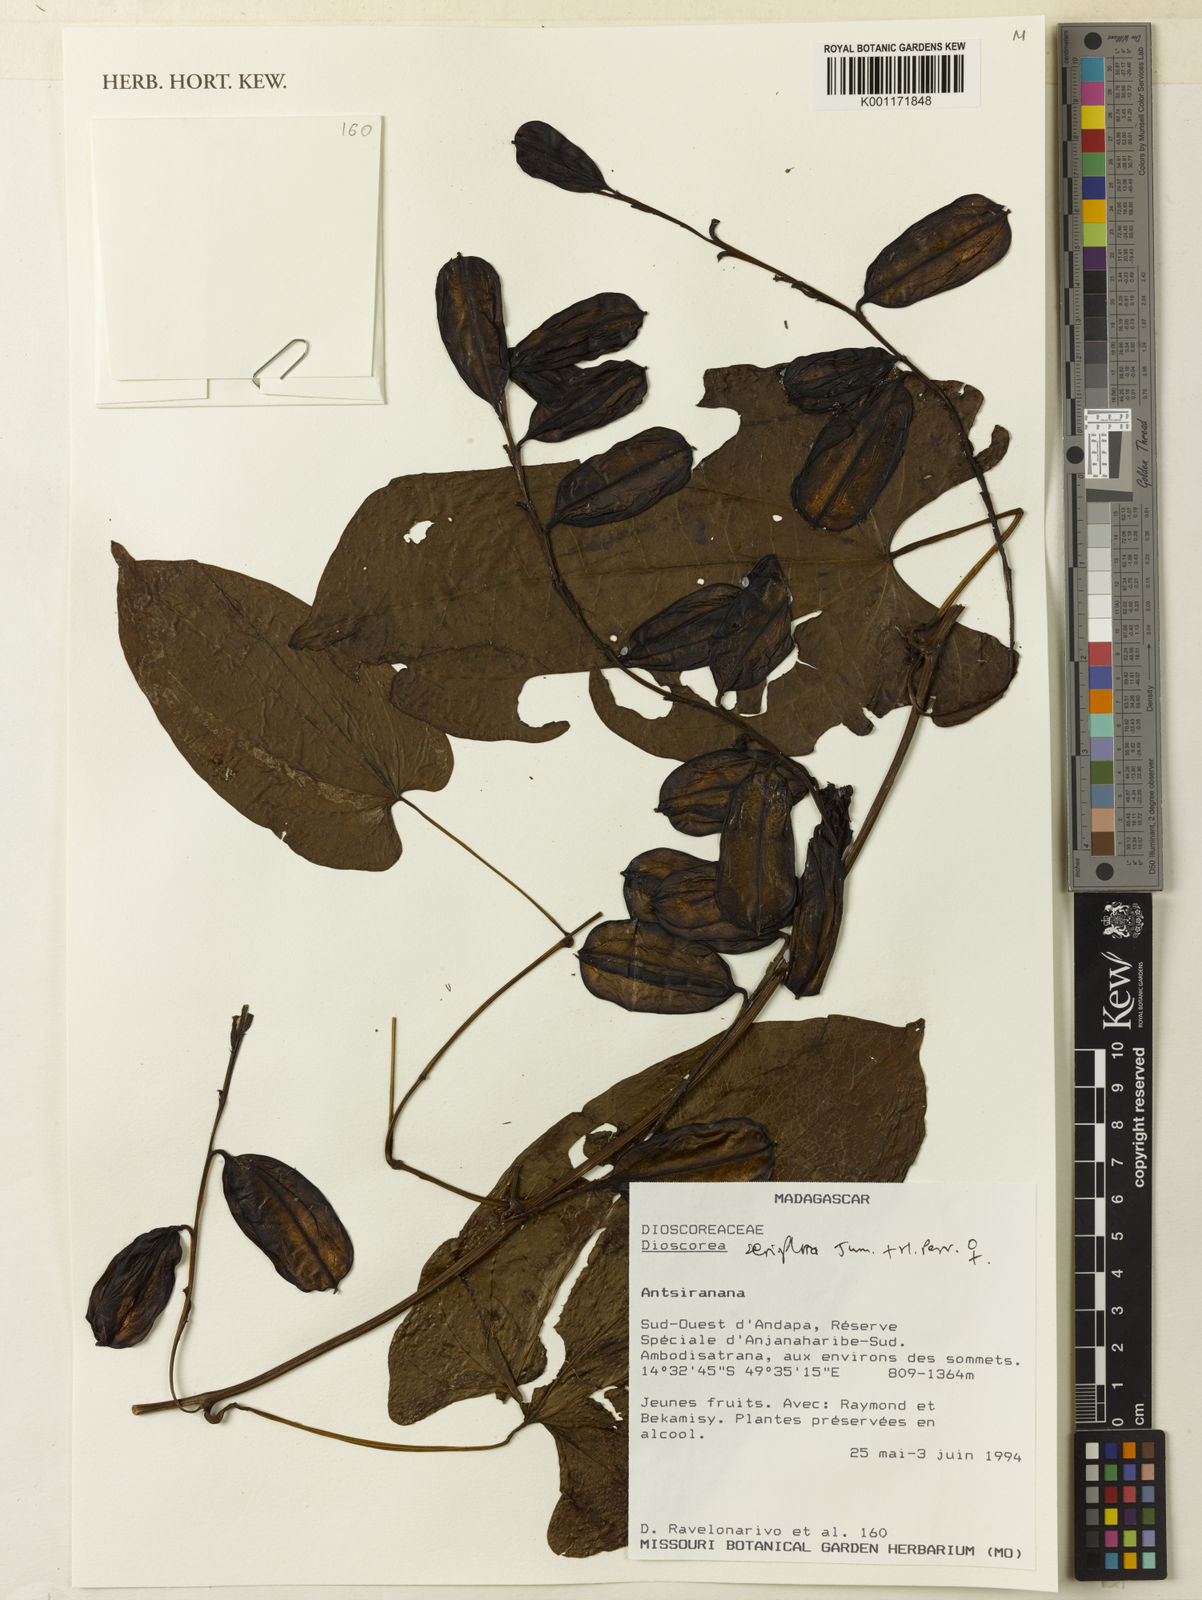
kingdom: Plantae
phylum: Tracheophyta
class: Liliopsida
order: Dioscoreales
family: Dioscoreaceae
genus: Dioscorea
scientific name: Dioscorea seriflora
